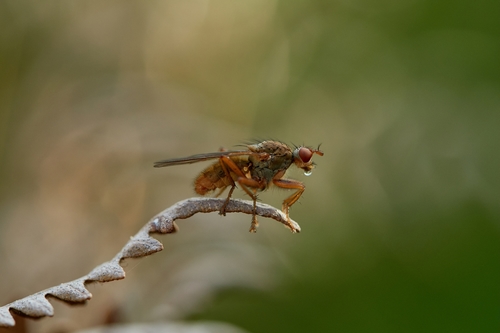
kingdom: Animalia
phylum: Arthropoda
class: Insecta
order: Diptera
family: Scathophagidae
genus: Scathophaga
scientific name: Scathophaga stercoraria
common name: Yellow dung fly
